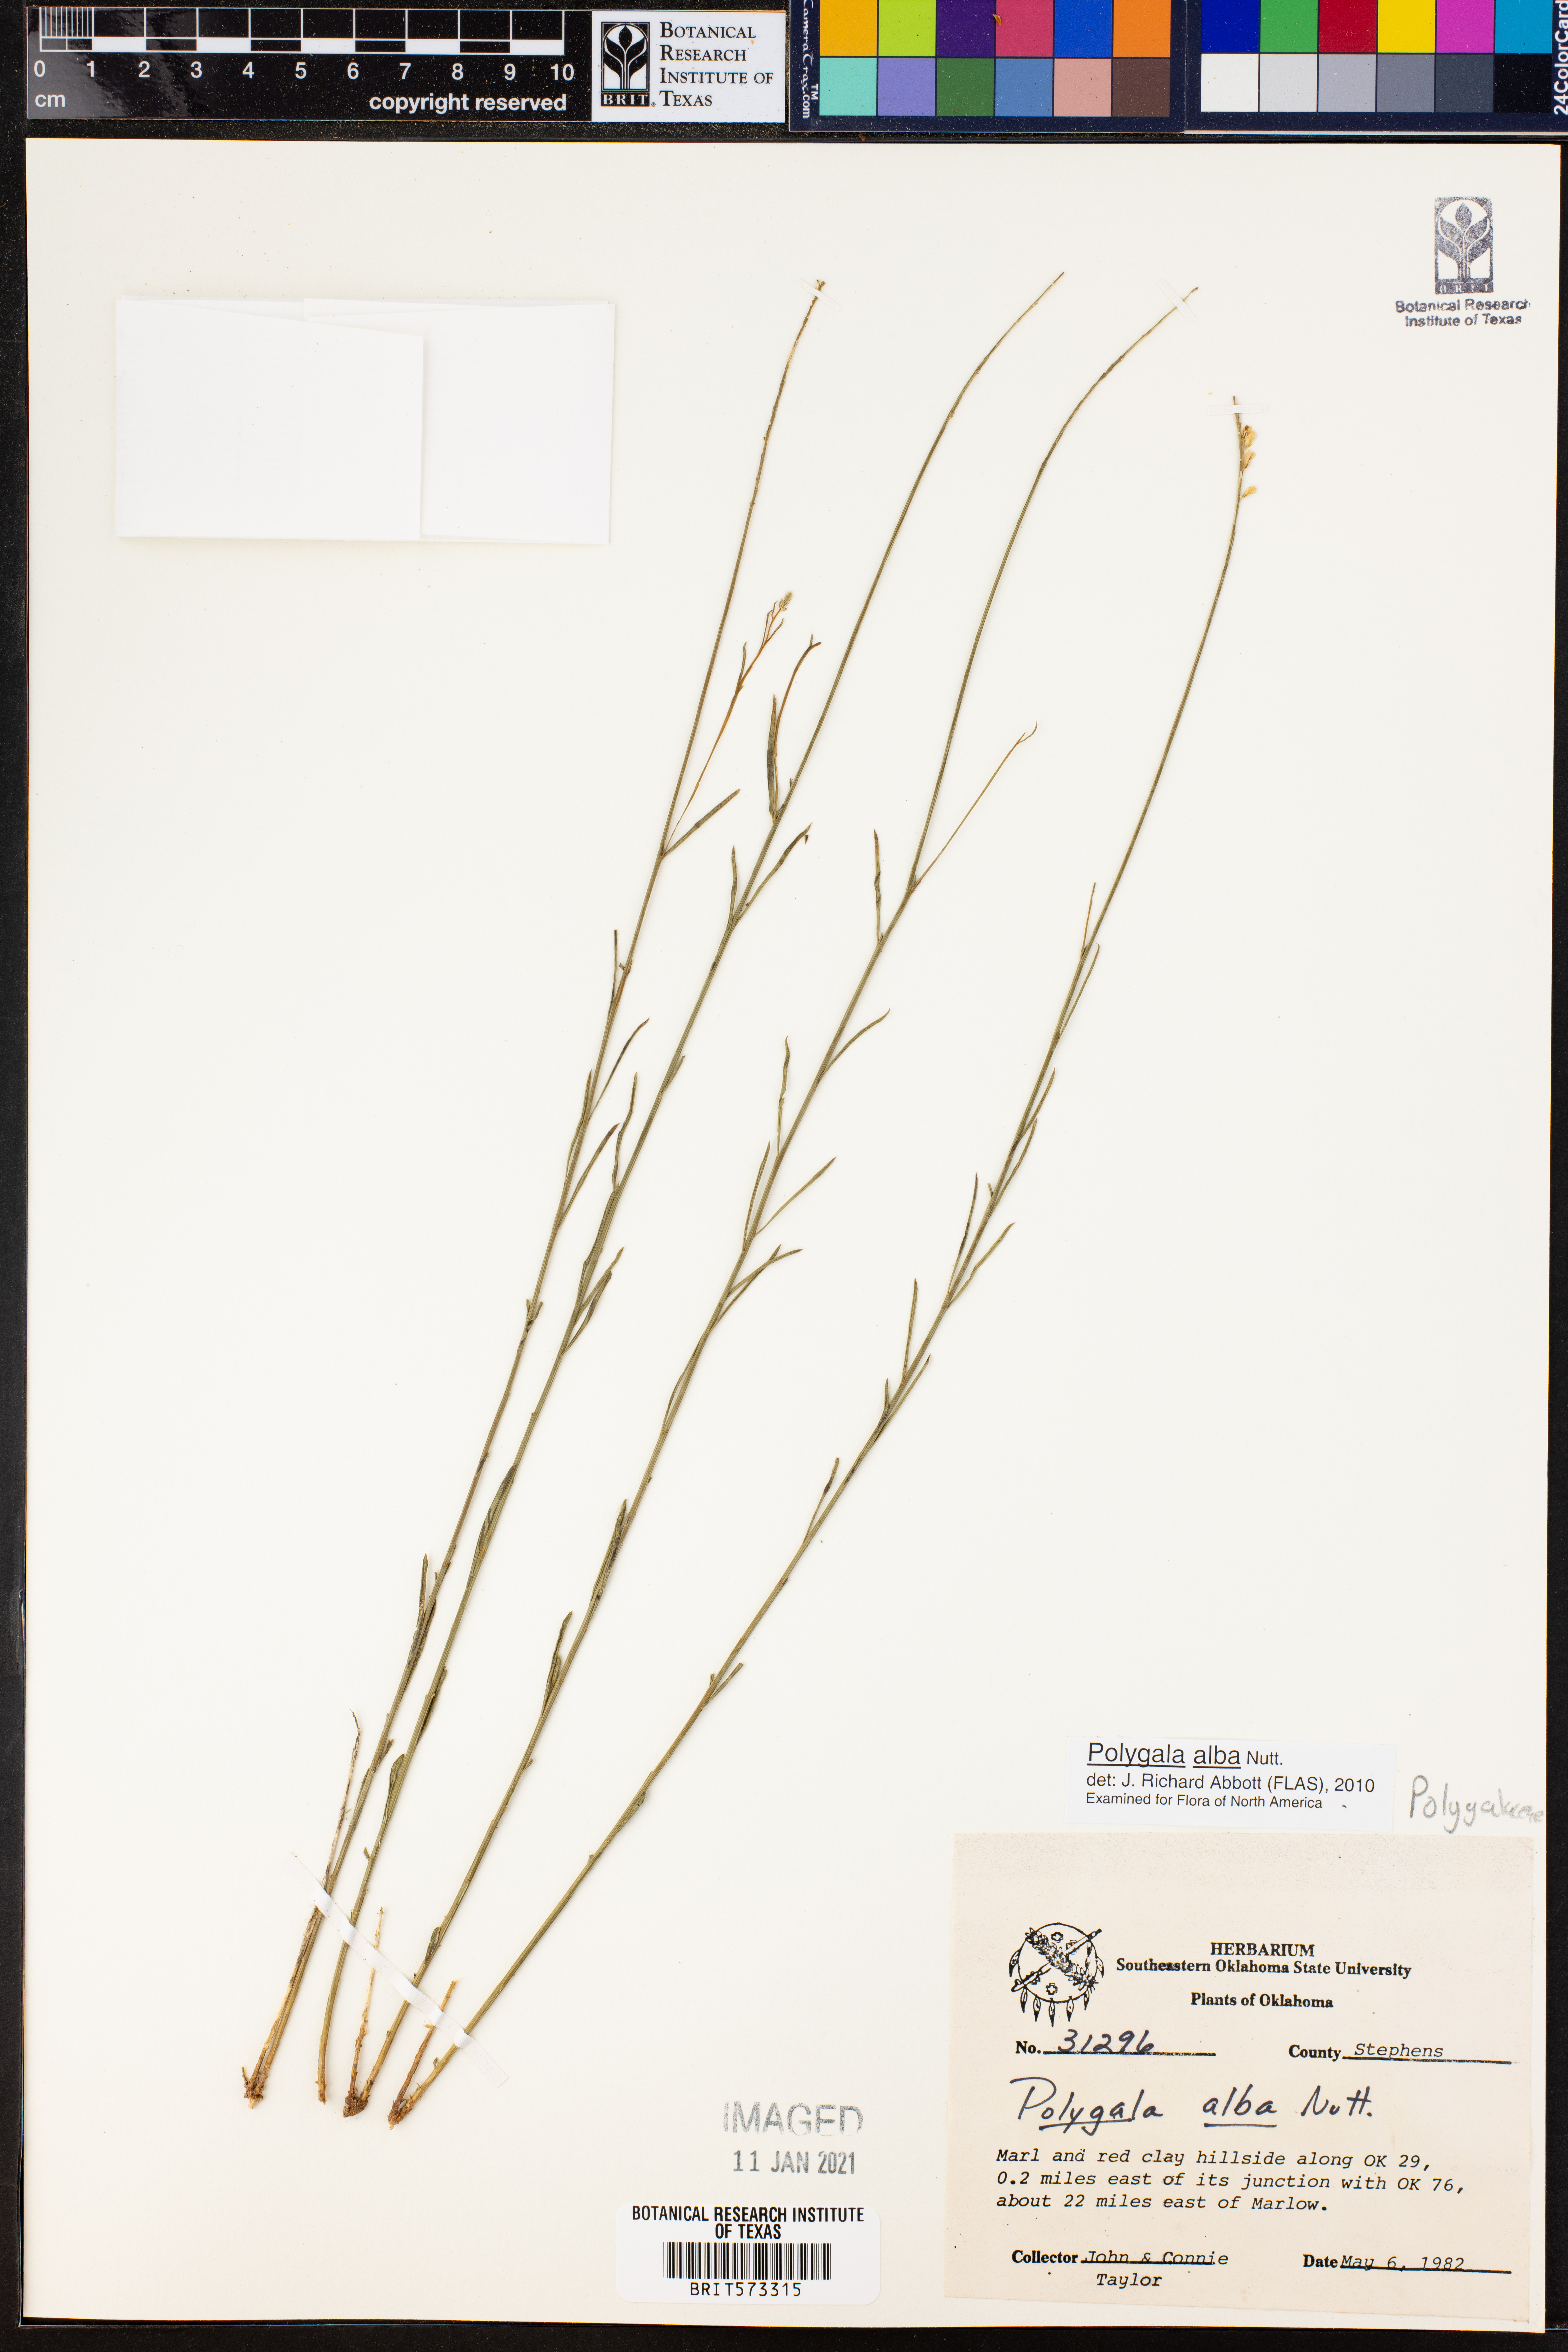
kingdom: Plantae
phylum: Tracheophyta
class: Magnoliopsida
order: Fabales
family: Polygalaceae
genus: Polygala
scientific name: Polygala alba
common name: White milkwort
